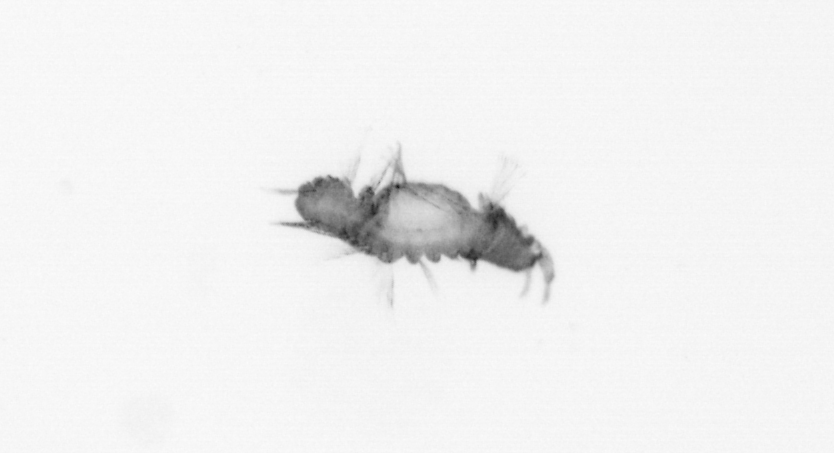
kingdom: Animalia
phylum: Annelida
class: Polychaeta
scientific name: Polychaeta
